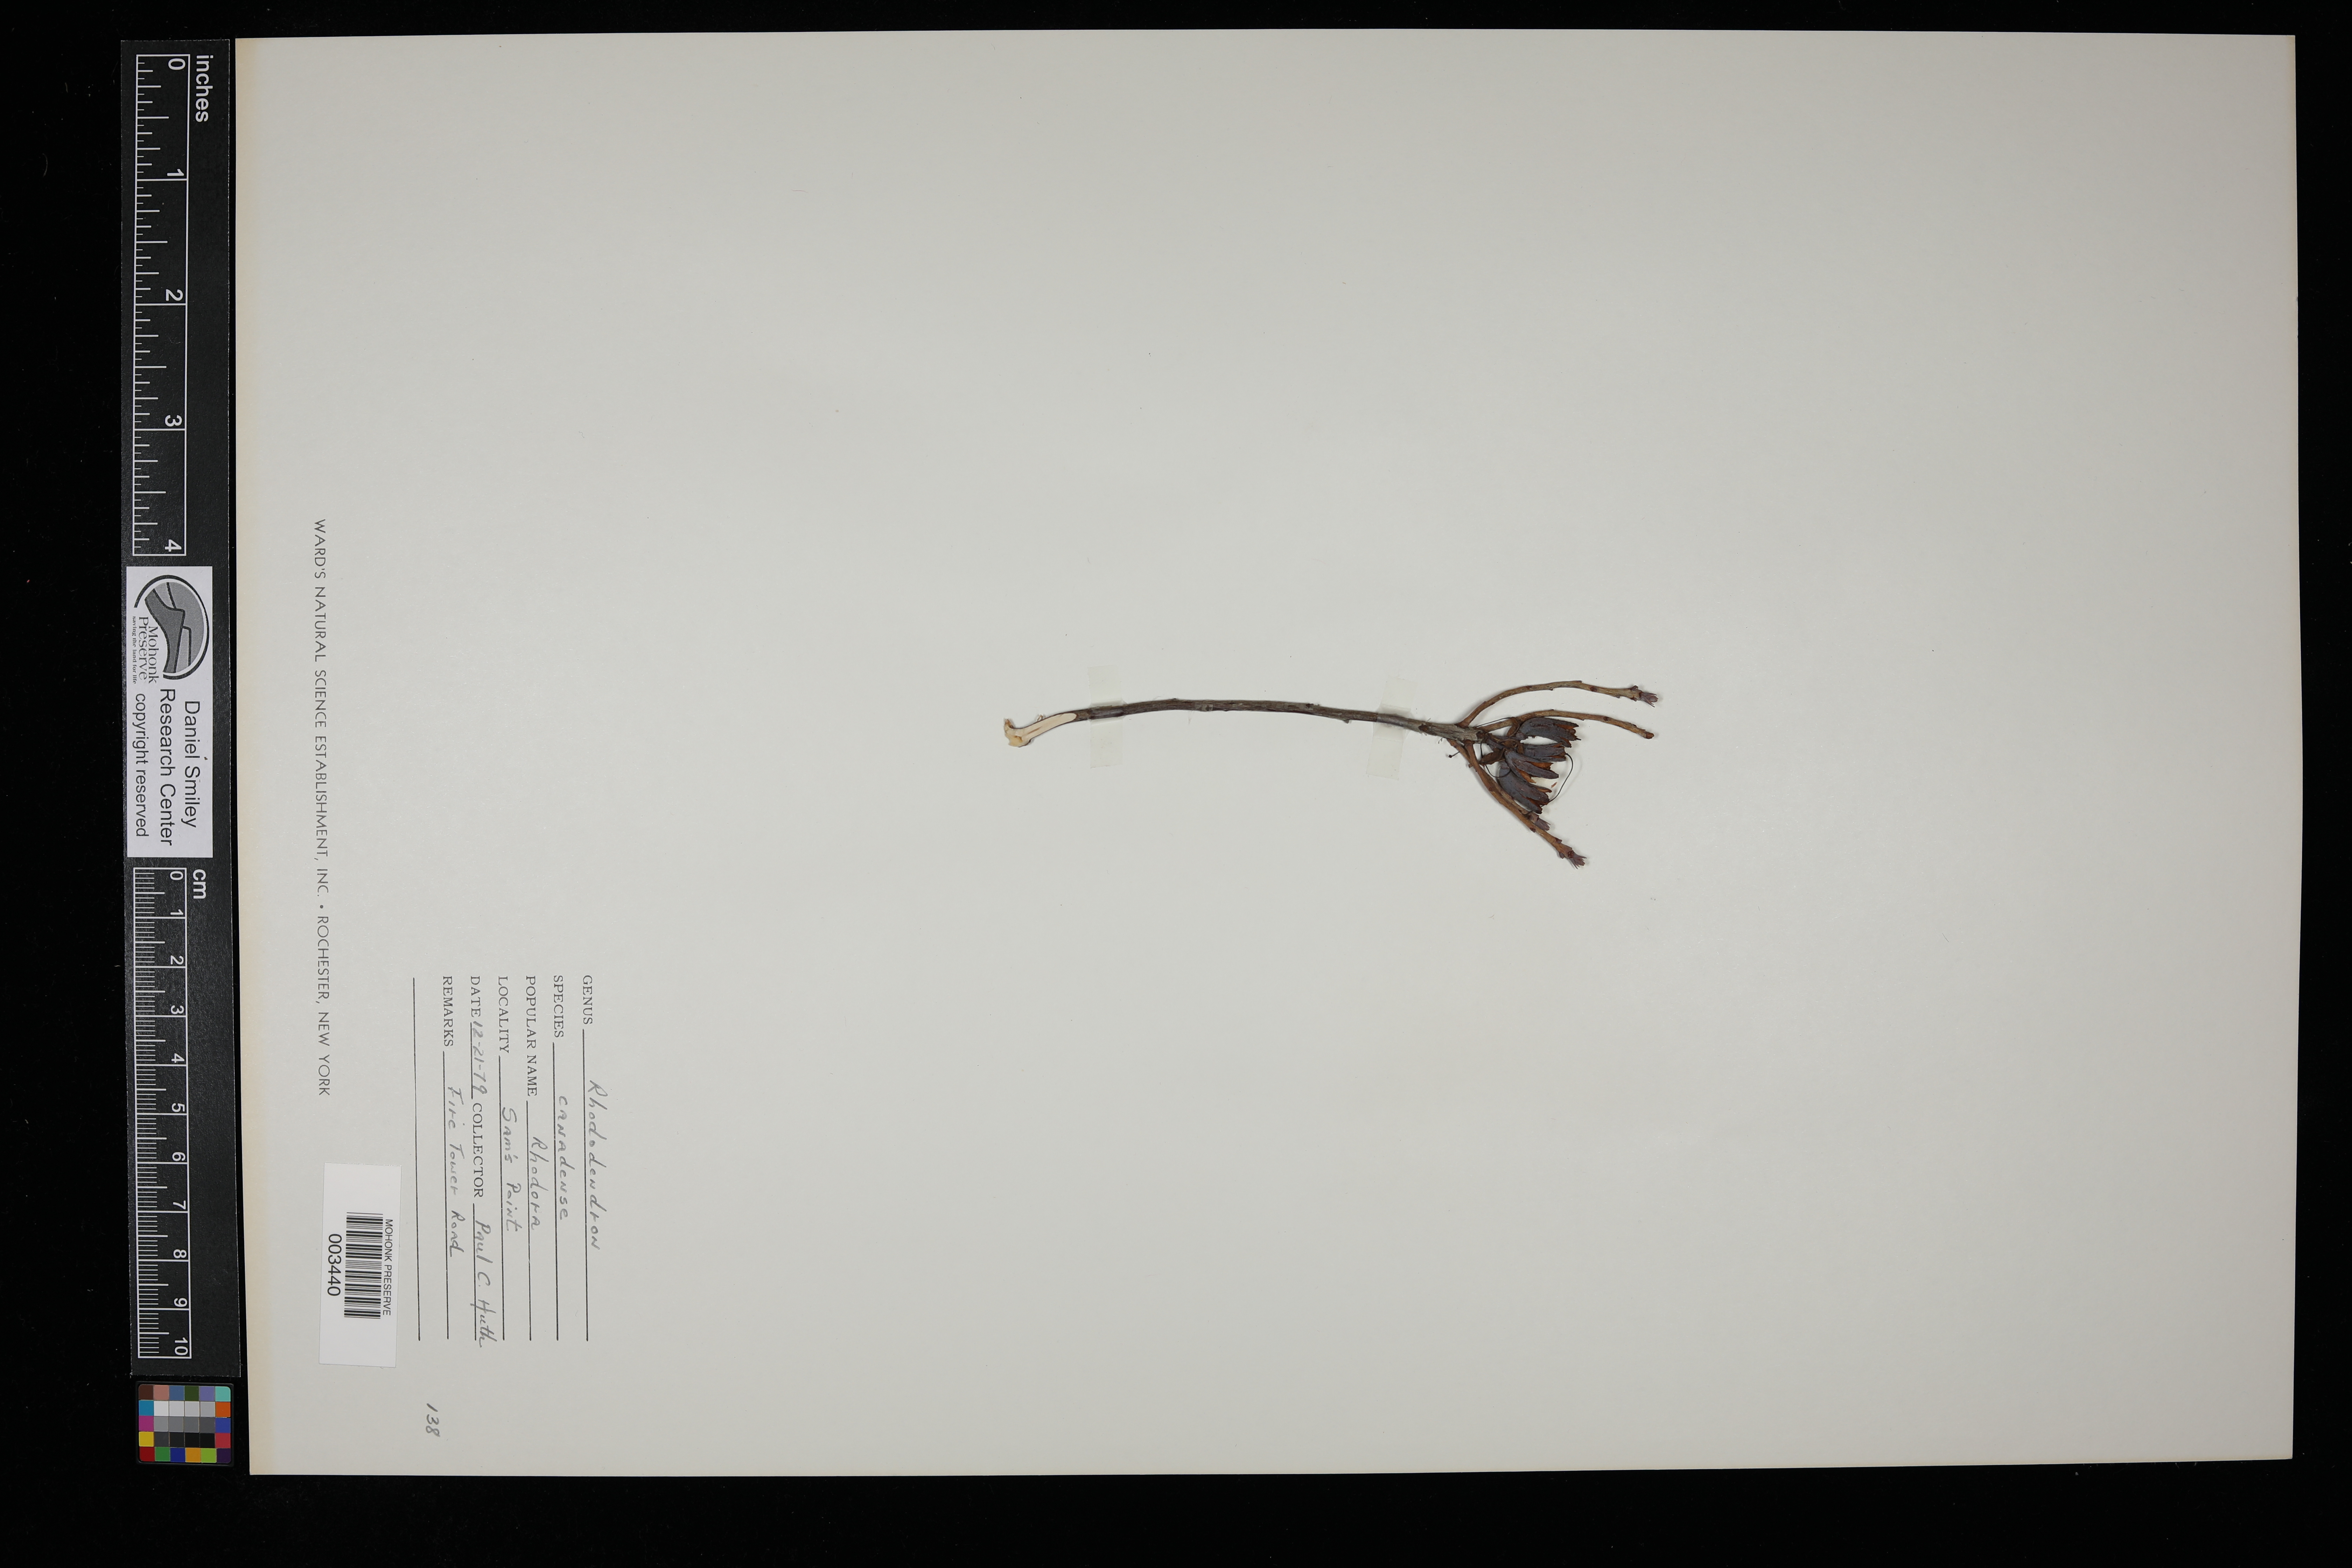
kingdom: Plantae
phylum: Tracheophyta
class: Magnoliopsida
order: Ericales
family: Ericaceae
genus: Rhododendron
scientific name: Rhododendron canadense
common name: Rhodora
